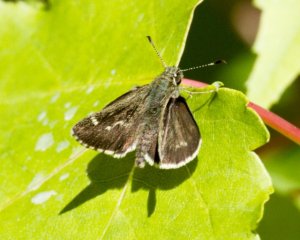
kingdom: Animalia
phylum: Arthropoda
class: Insecta
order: Lepidoptera
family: Hesperiidae
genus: Mastor
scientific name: Mastor hegon
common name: Pepper and Salt Skipper
